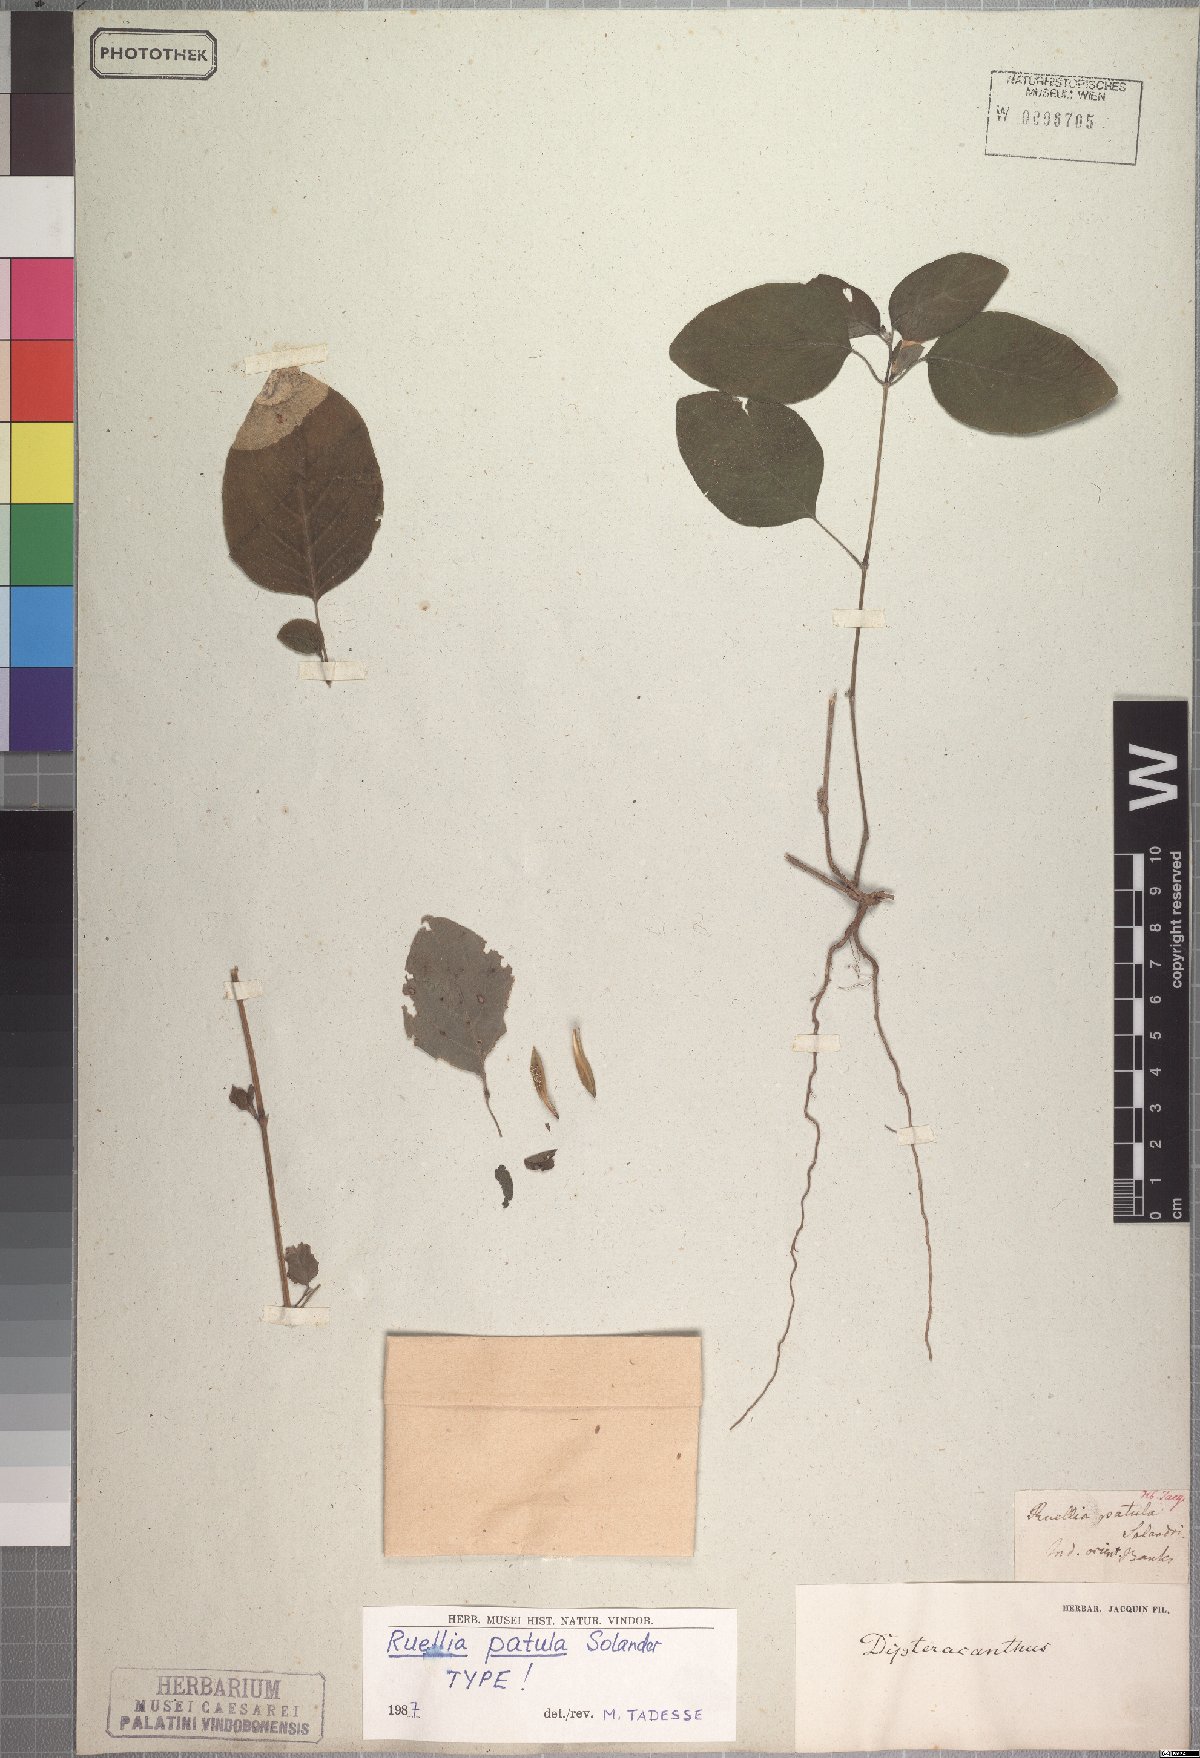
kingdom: Plantae
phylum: Tracheophyta
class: Magnoliopsida
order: Lamiales
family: Acanthaceae
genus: Ruellia
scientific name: Ruellia patula
